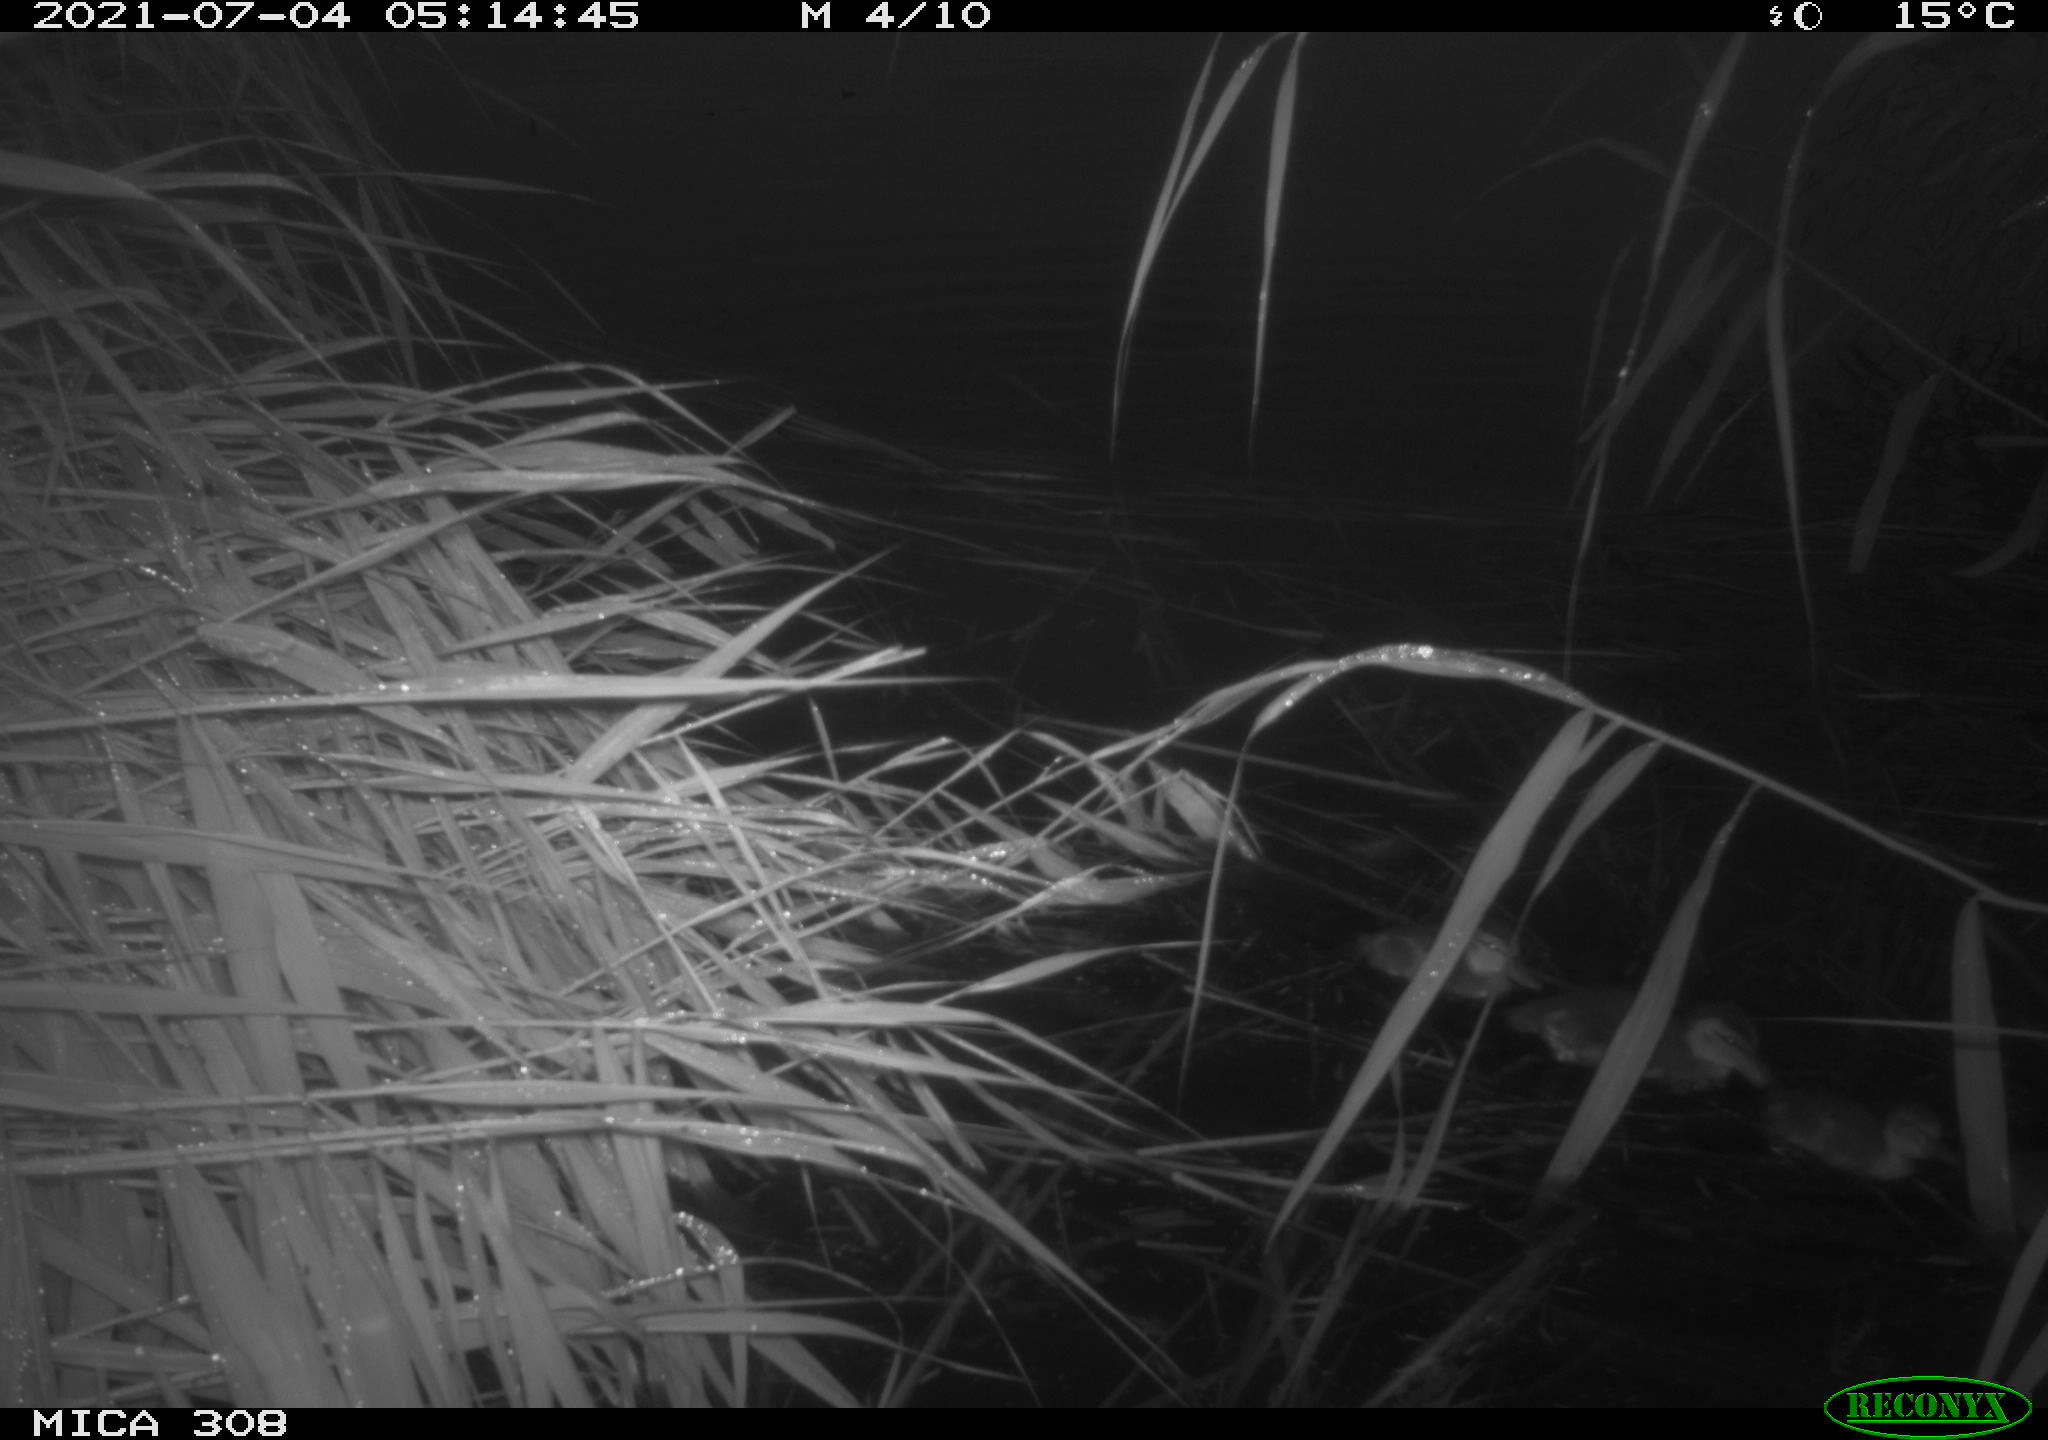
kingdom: Animalia
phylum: Chordata
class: Aves
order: Anseriformes
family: Anatidae
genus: Anas
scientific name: Anas platyrhynchos
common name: Mallard
